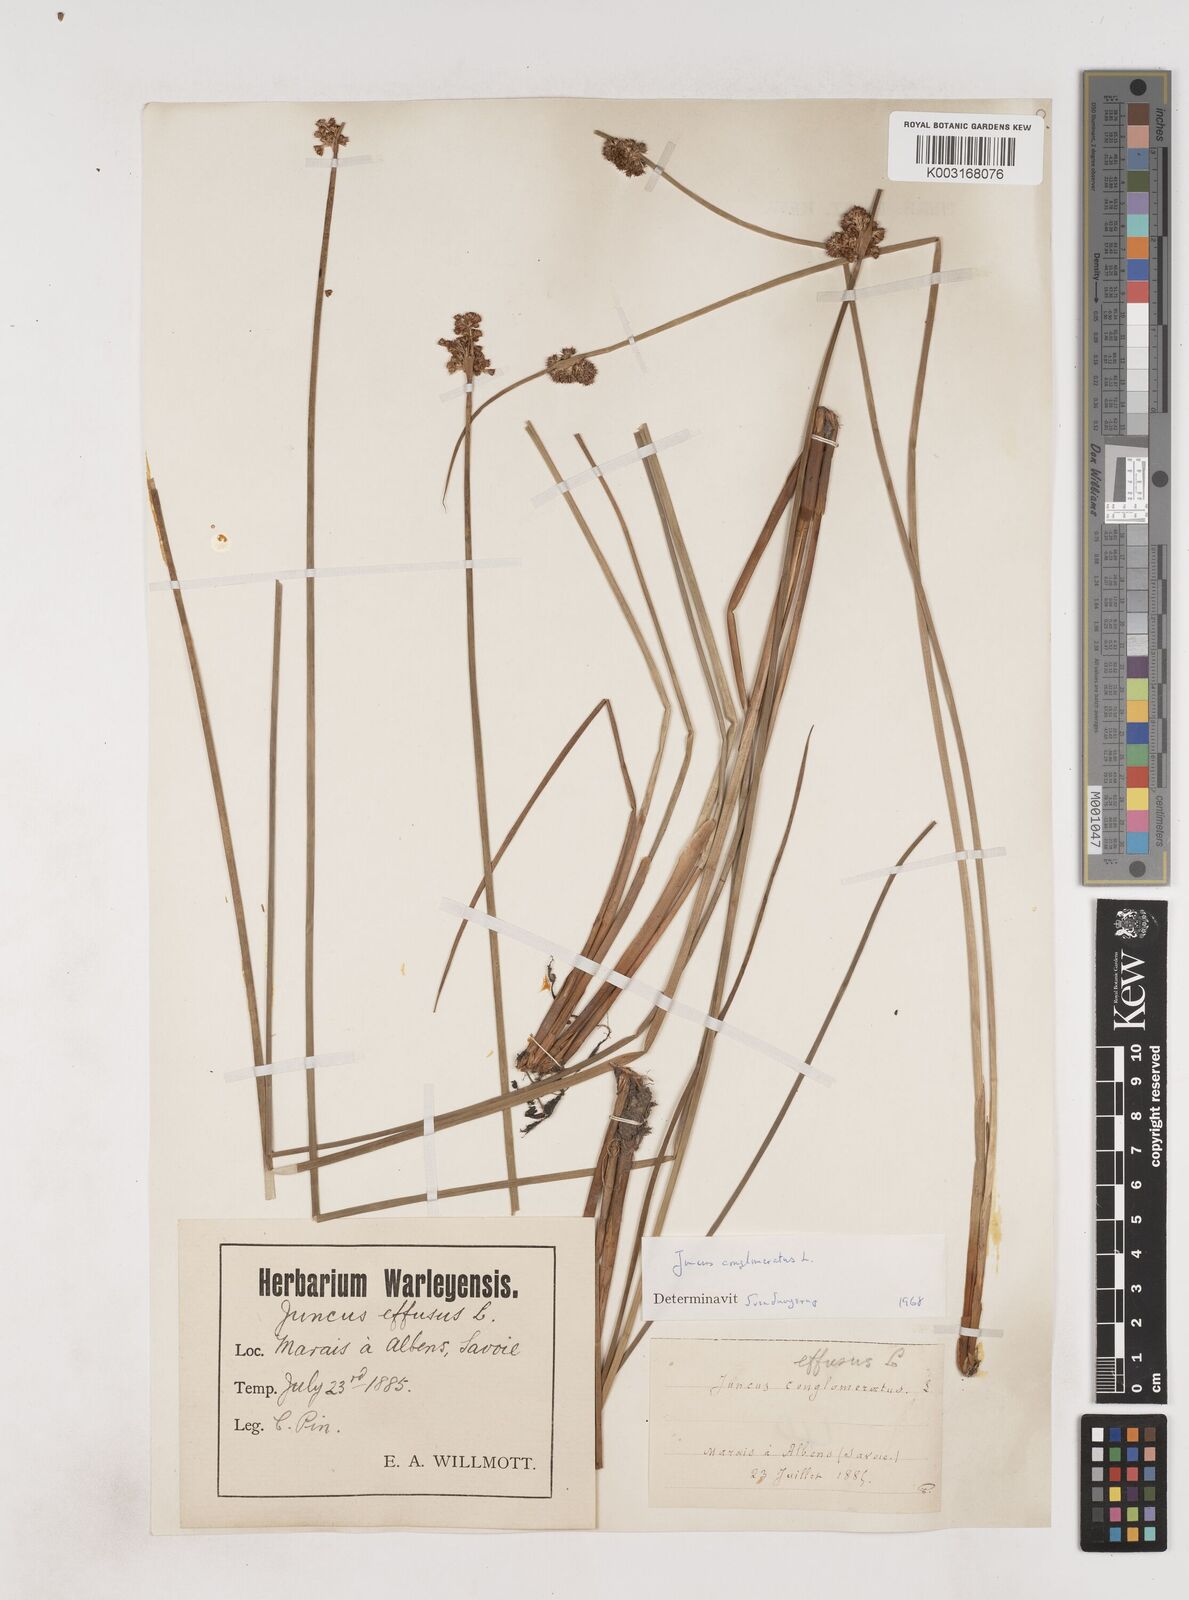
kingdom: Plantae
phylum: Tracheophyta
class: Liliopsida
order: Poales
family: Juncaceae
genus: Juncus
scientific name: Juncus conglomeratus
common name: Compact rush
